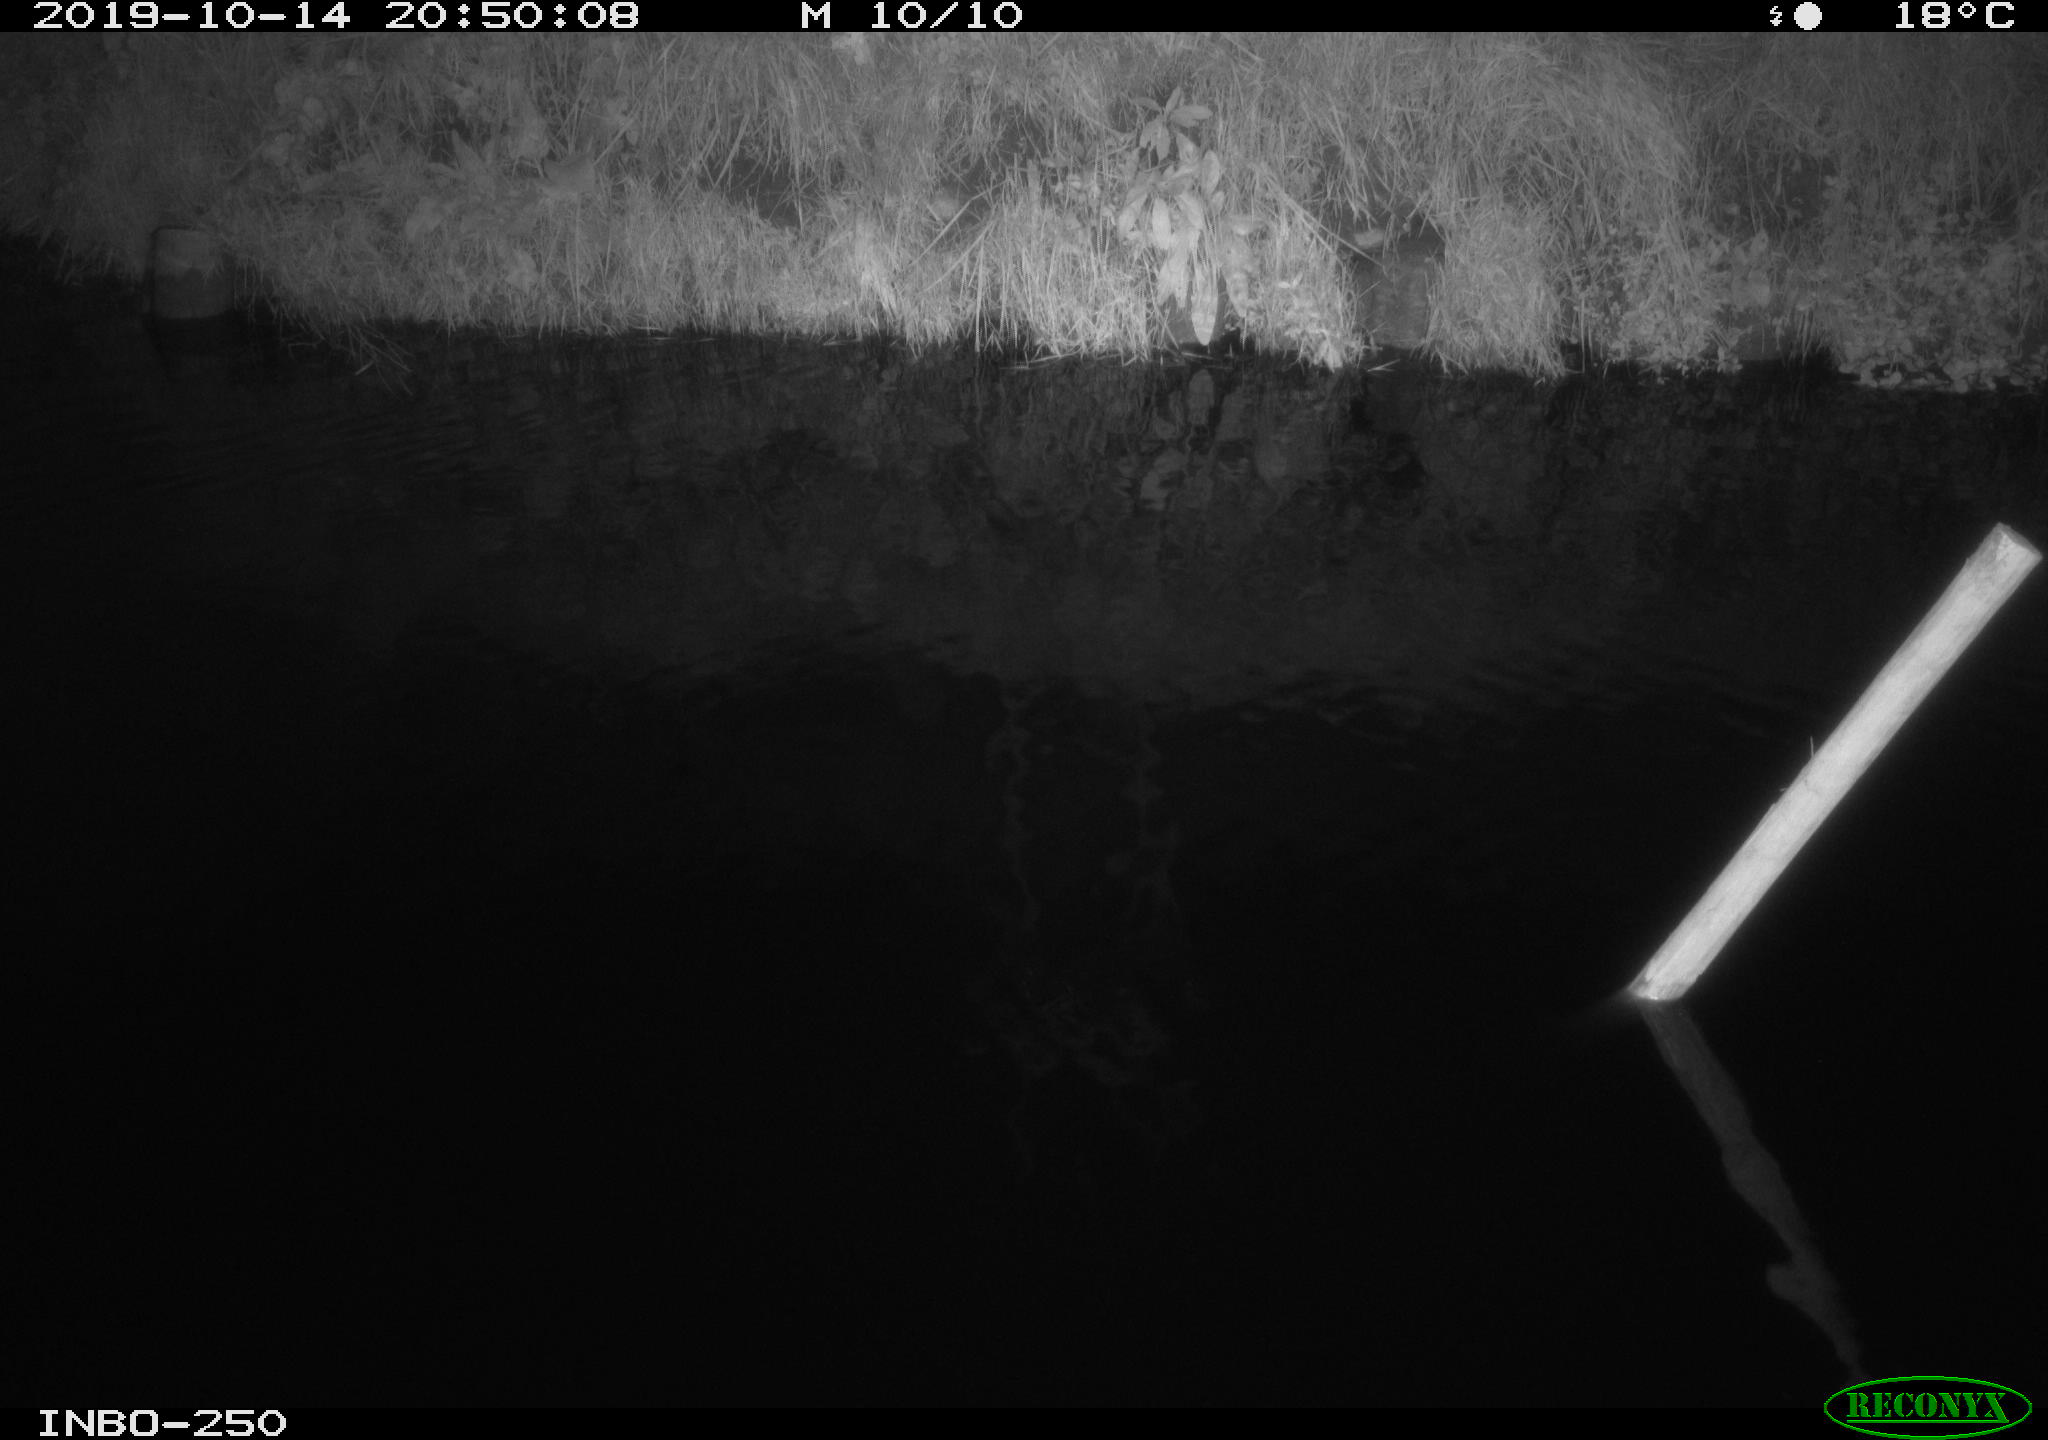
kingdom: Animalia
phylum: Chordata
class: Aves
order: Anseriformes
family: Anatidae
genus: Anas
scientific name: Anas platyrhynchos
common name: Mallard
